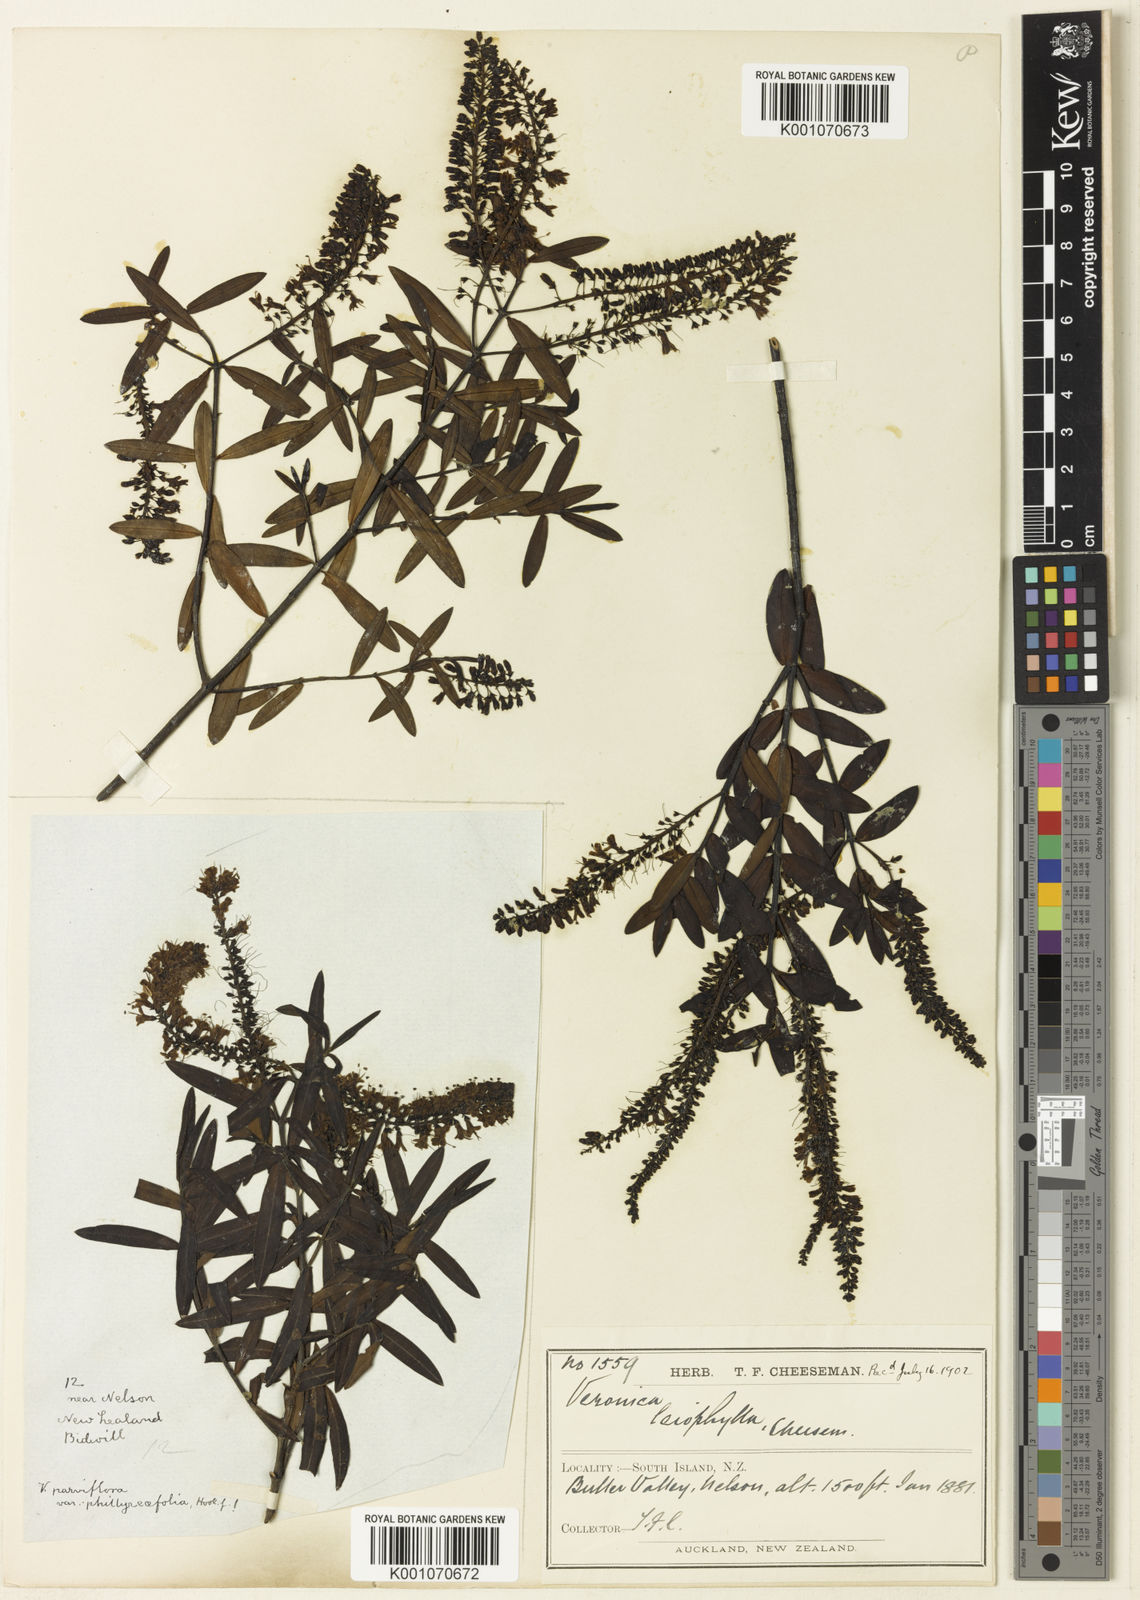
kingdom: Plantae
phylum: Tracheophyta
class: Magnoliopsida
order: Lamiales
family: Plantaginaceae
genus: Veronica
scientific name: Veronica leiophylla
